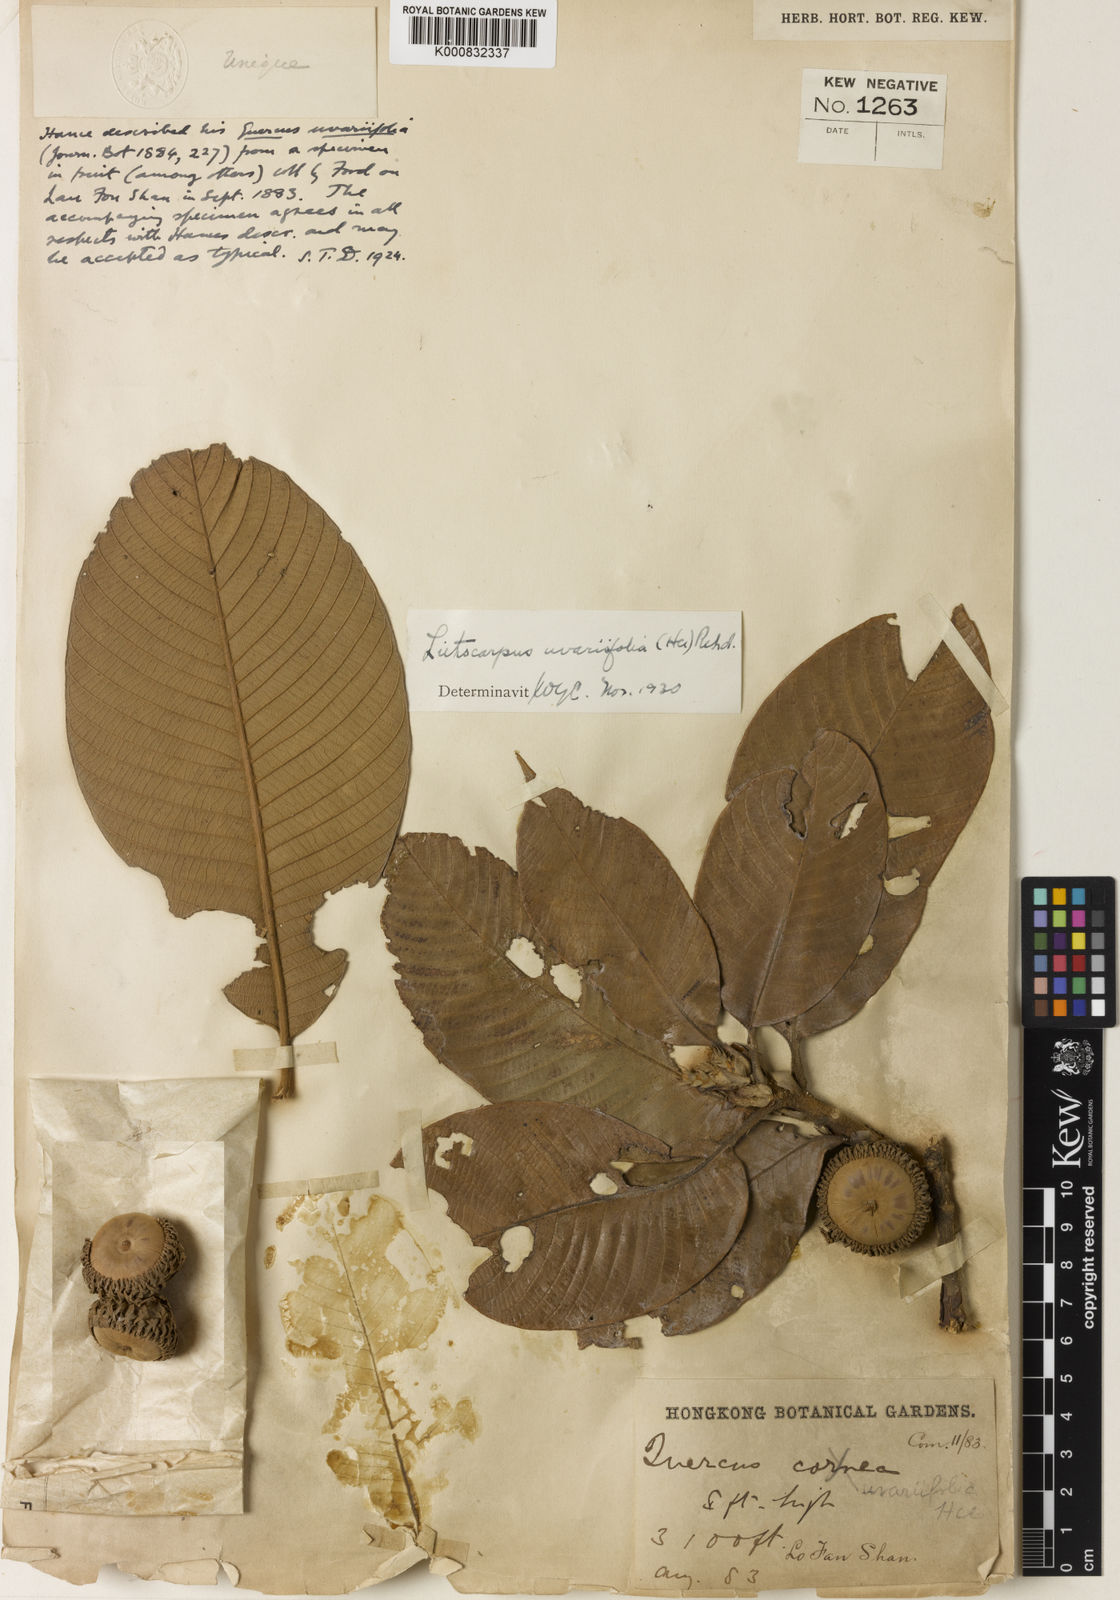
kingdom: Plantae
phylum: Tracheophyta
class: Magnoliopsida
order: Fagales
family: Fagaceae
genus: Lithocarpus
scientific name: Lithocarpus uvariifolius
